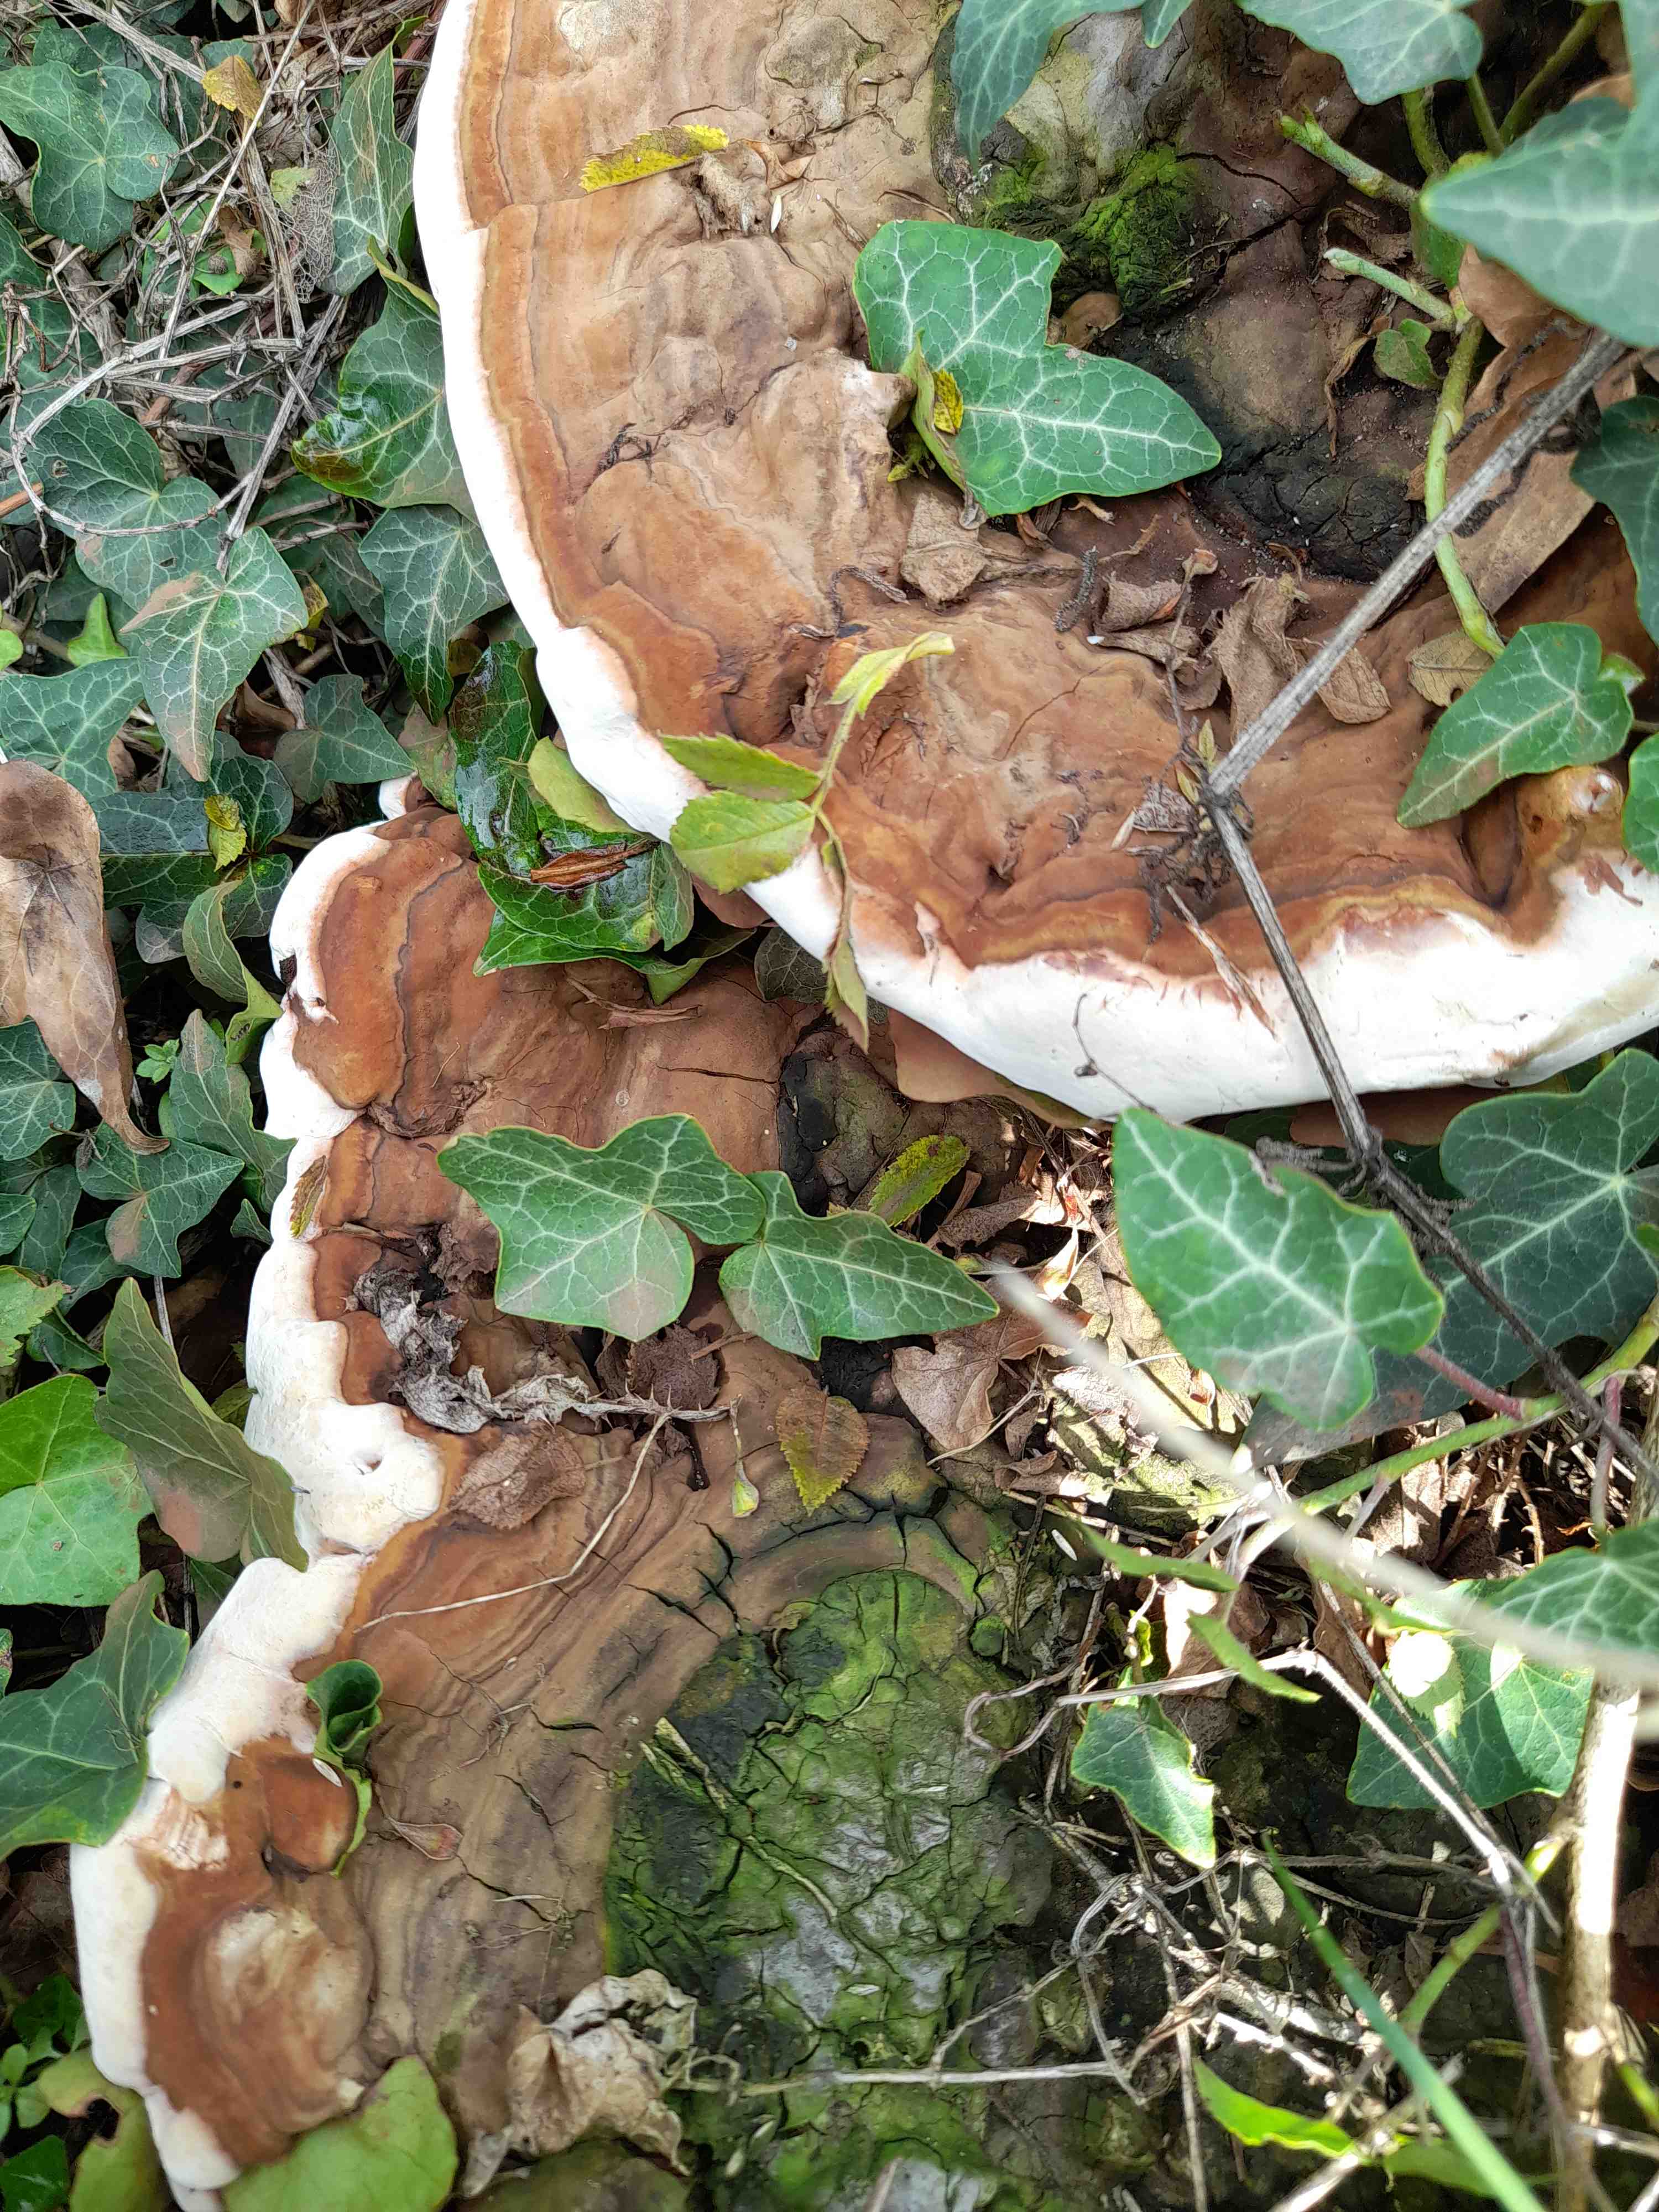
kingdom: Fungi
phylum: Basidiomycota
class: Agaricomycetes
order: Polyporales
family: Polyporaceae
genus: Ganoderma
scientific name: Ganoderma applanatum
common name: flad lakporesvamp
